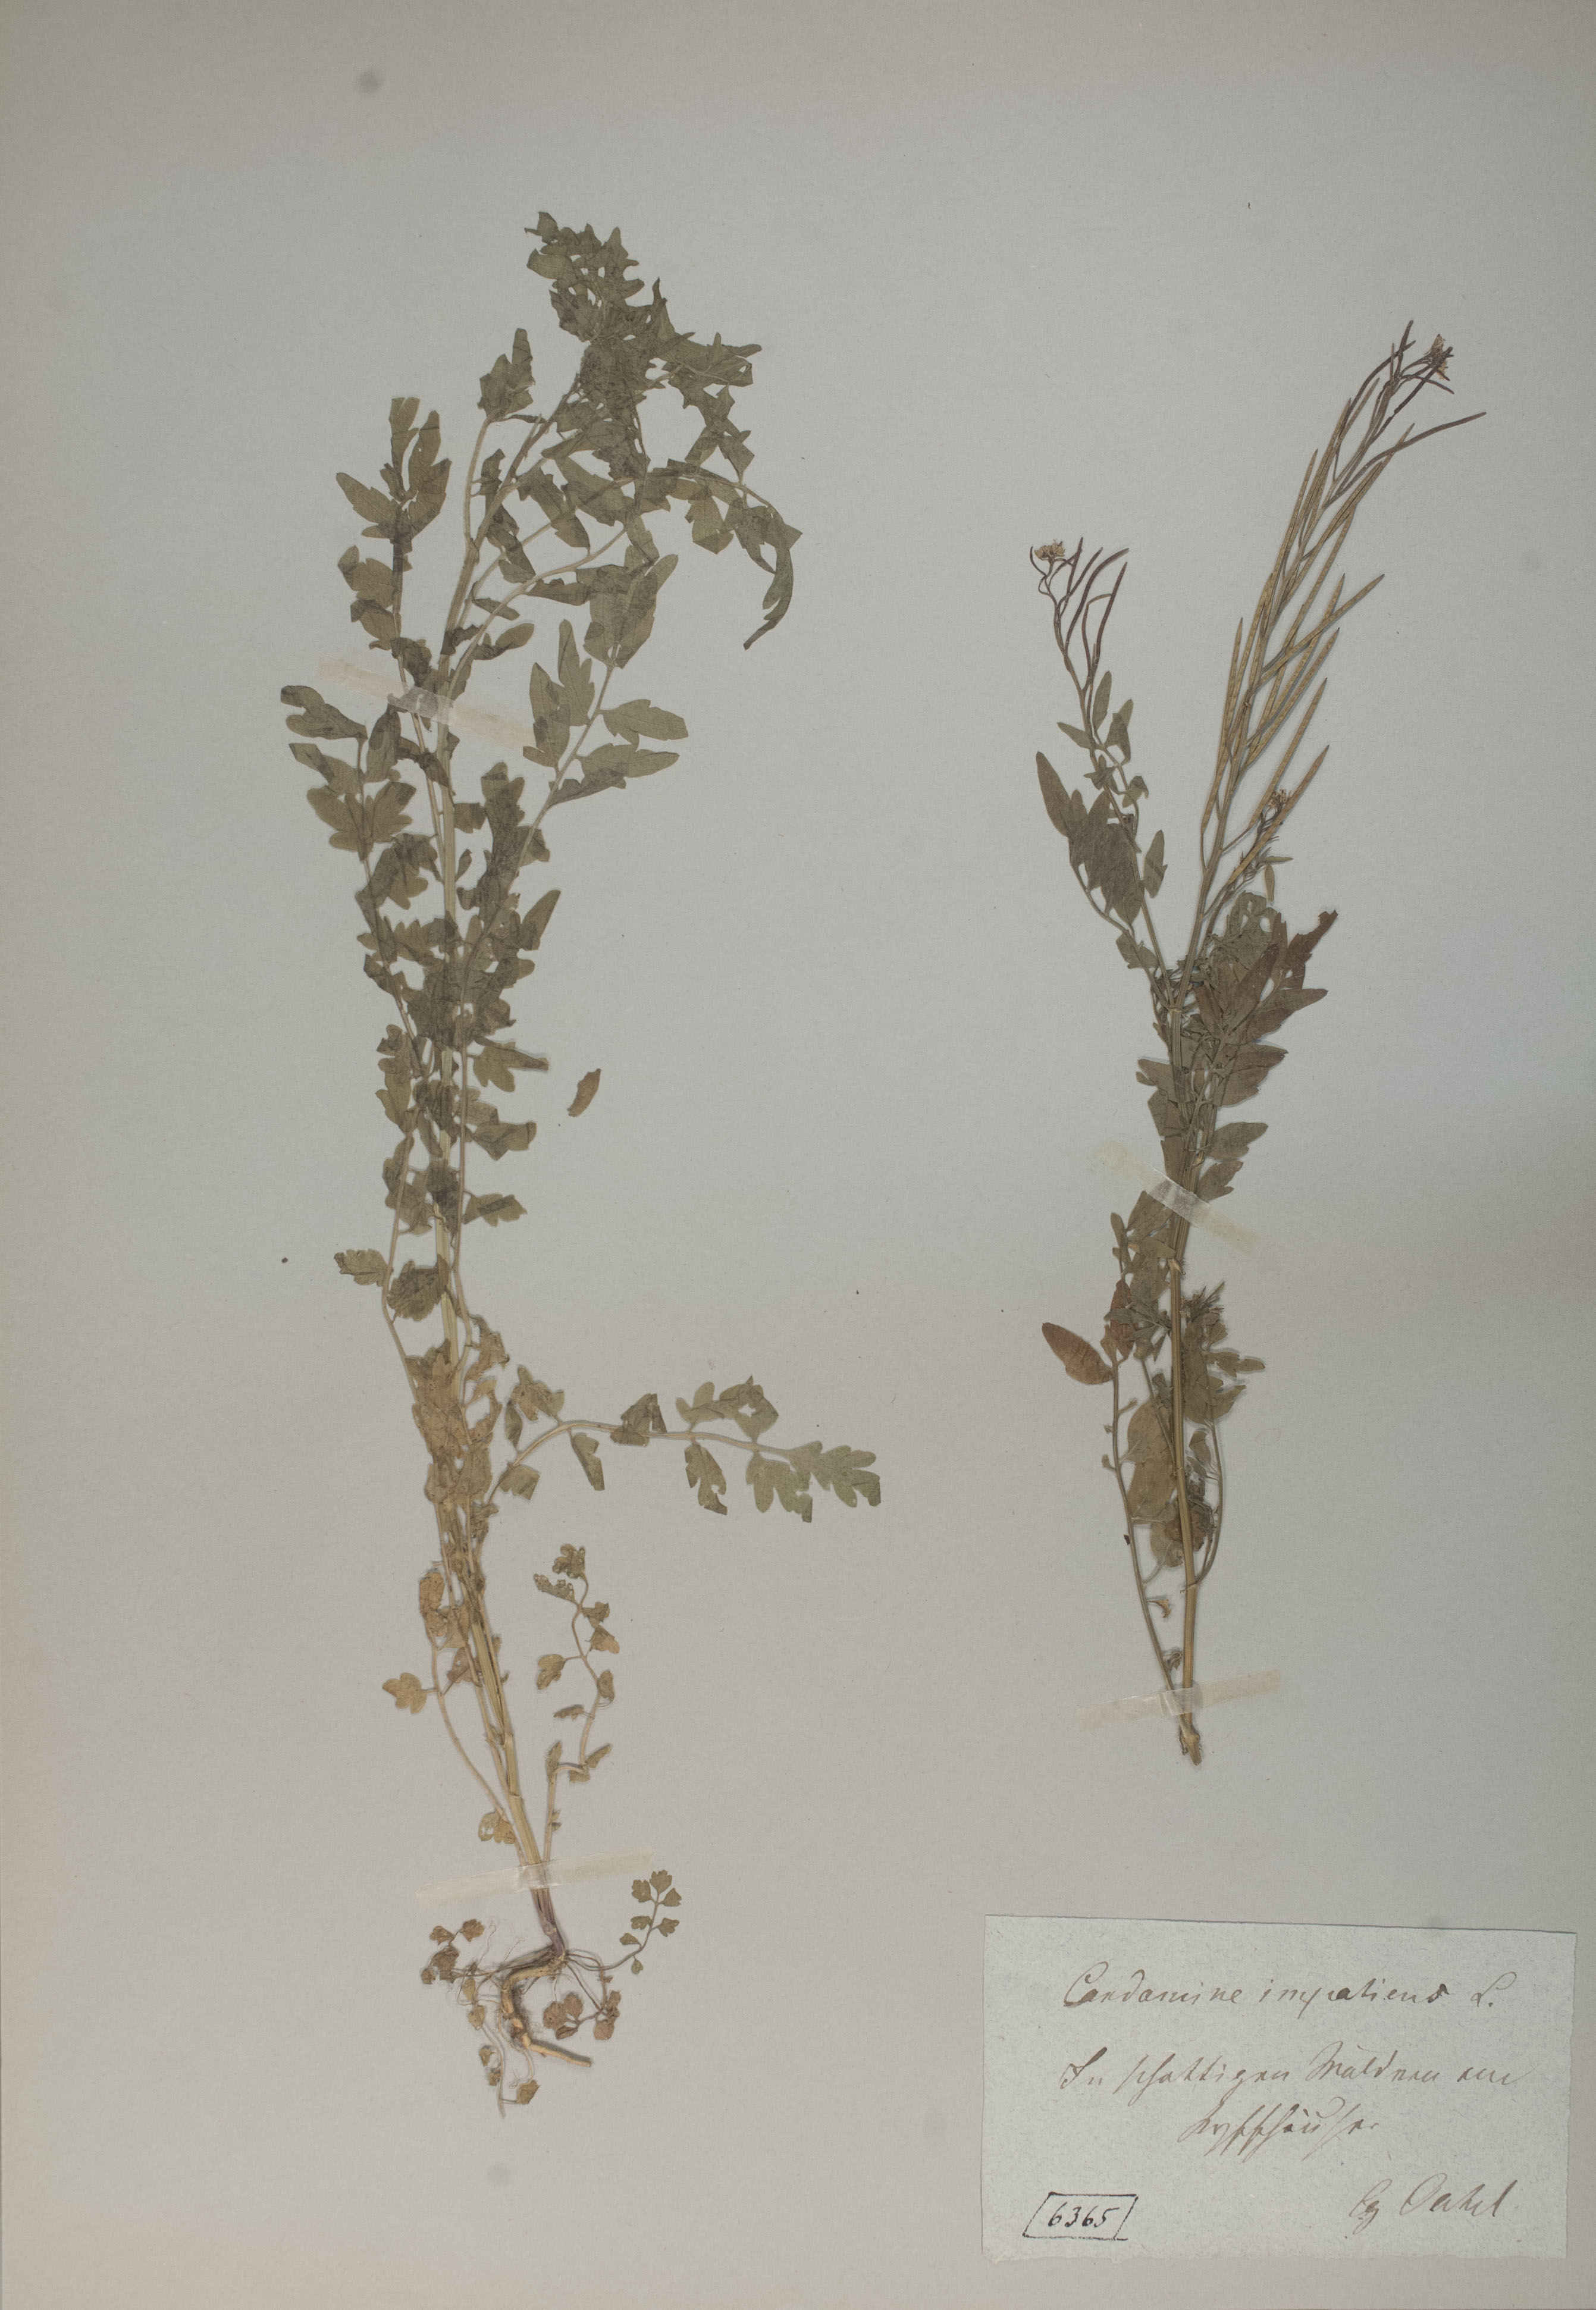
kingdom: Plantae
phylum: Tracheophyta
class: Magnoliopsida
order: Brassicales
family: Brassicaceae
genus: Cardamine
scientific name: Cardamine impatiens
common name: Narrow-leaved bitter-cress
